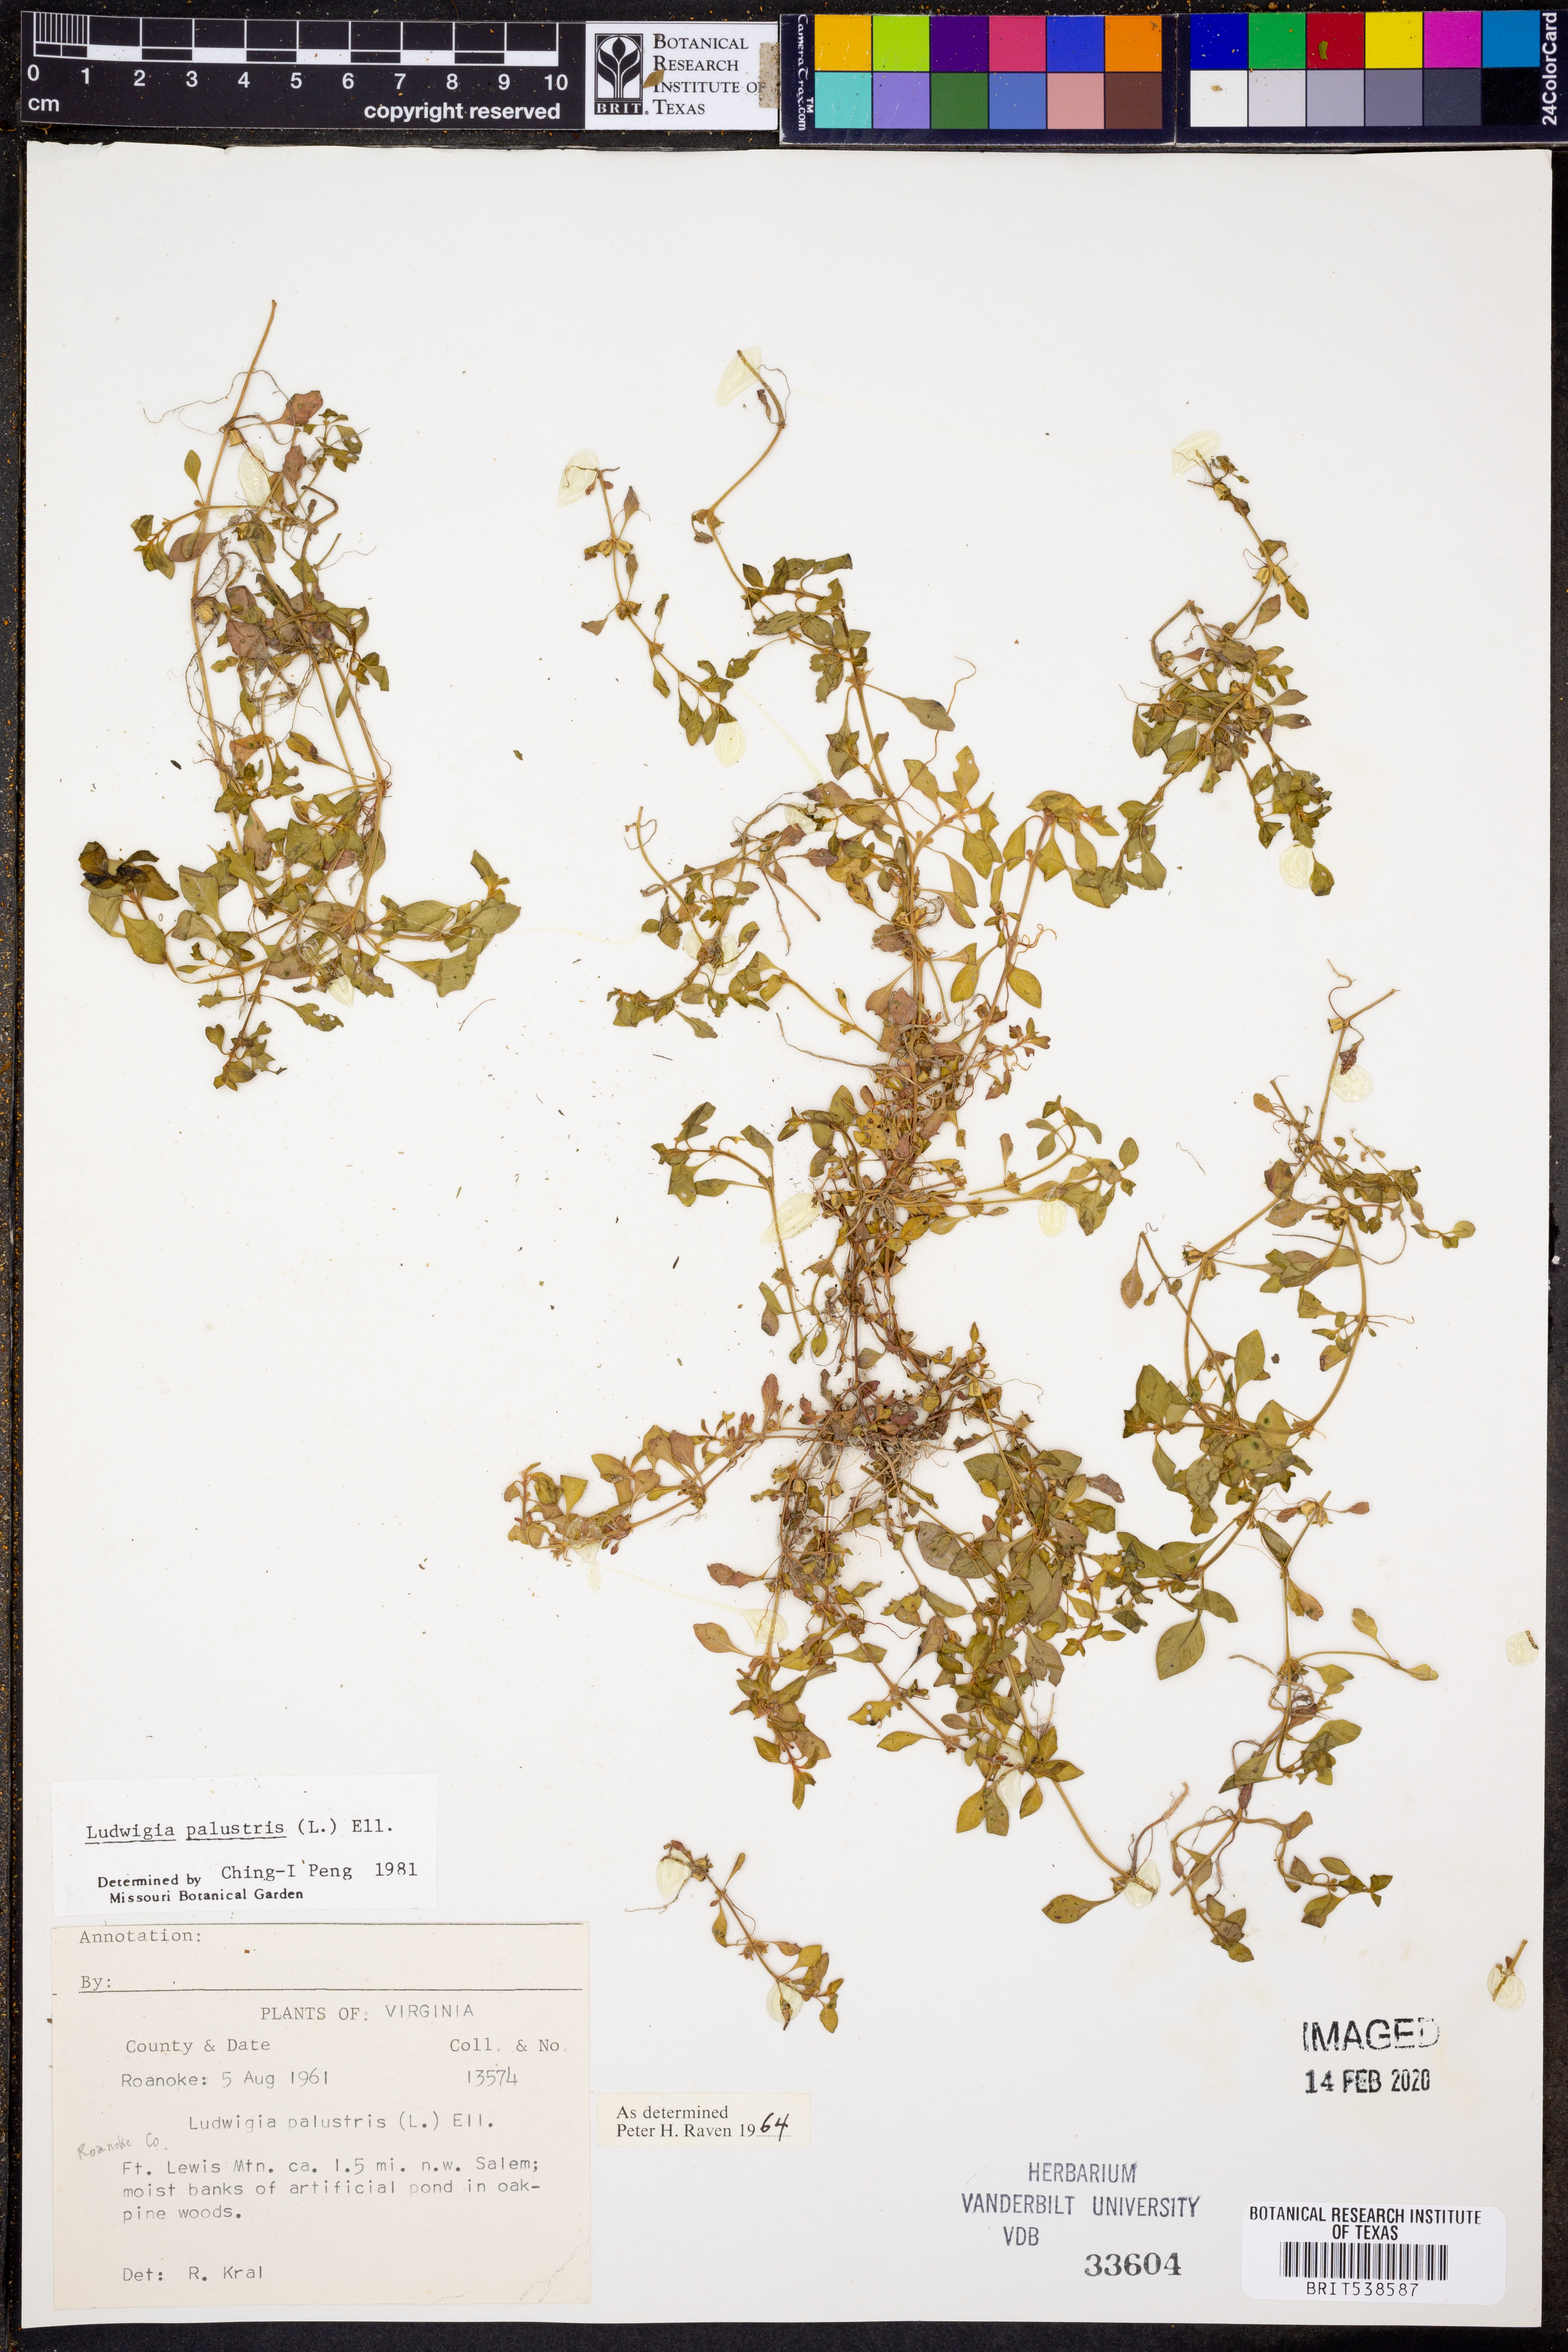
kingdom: Plantae
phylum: Tracheophyta
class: Magnoliopsida
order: Myrtales
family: Onagraceae
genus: Ludwigia
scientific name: Ludwigia palustris
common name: Hampshire-purslane
